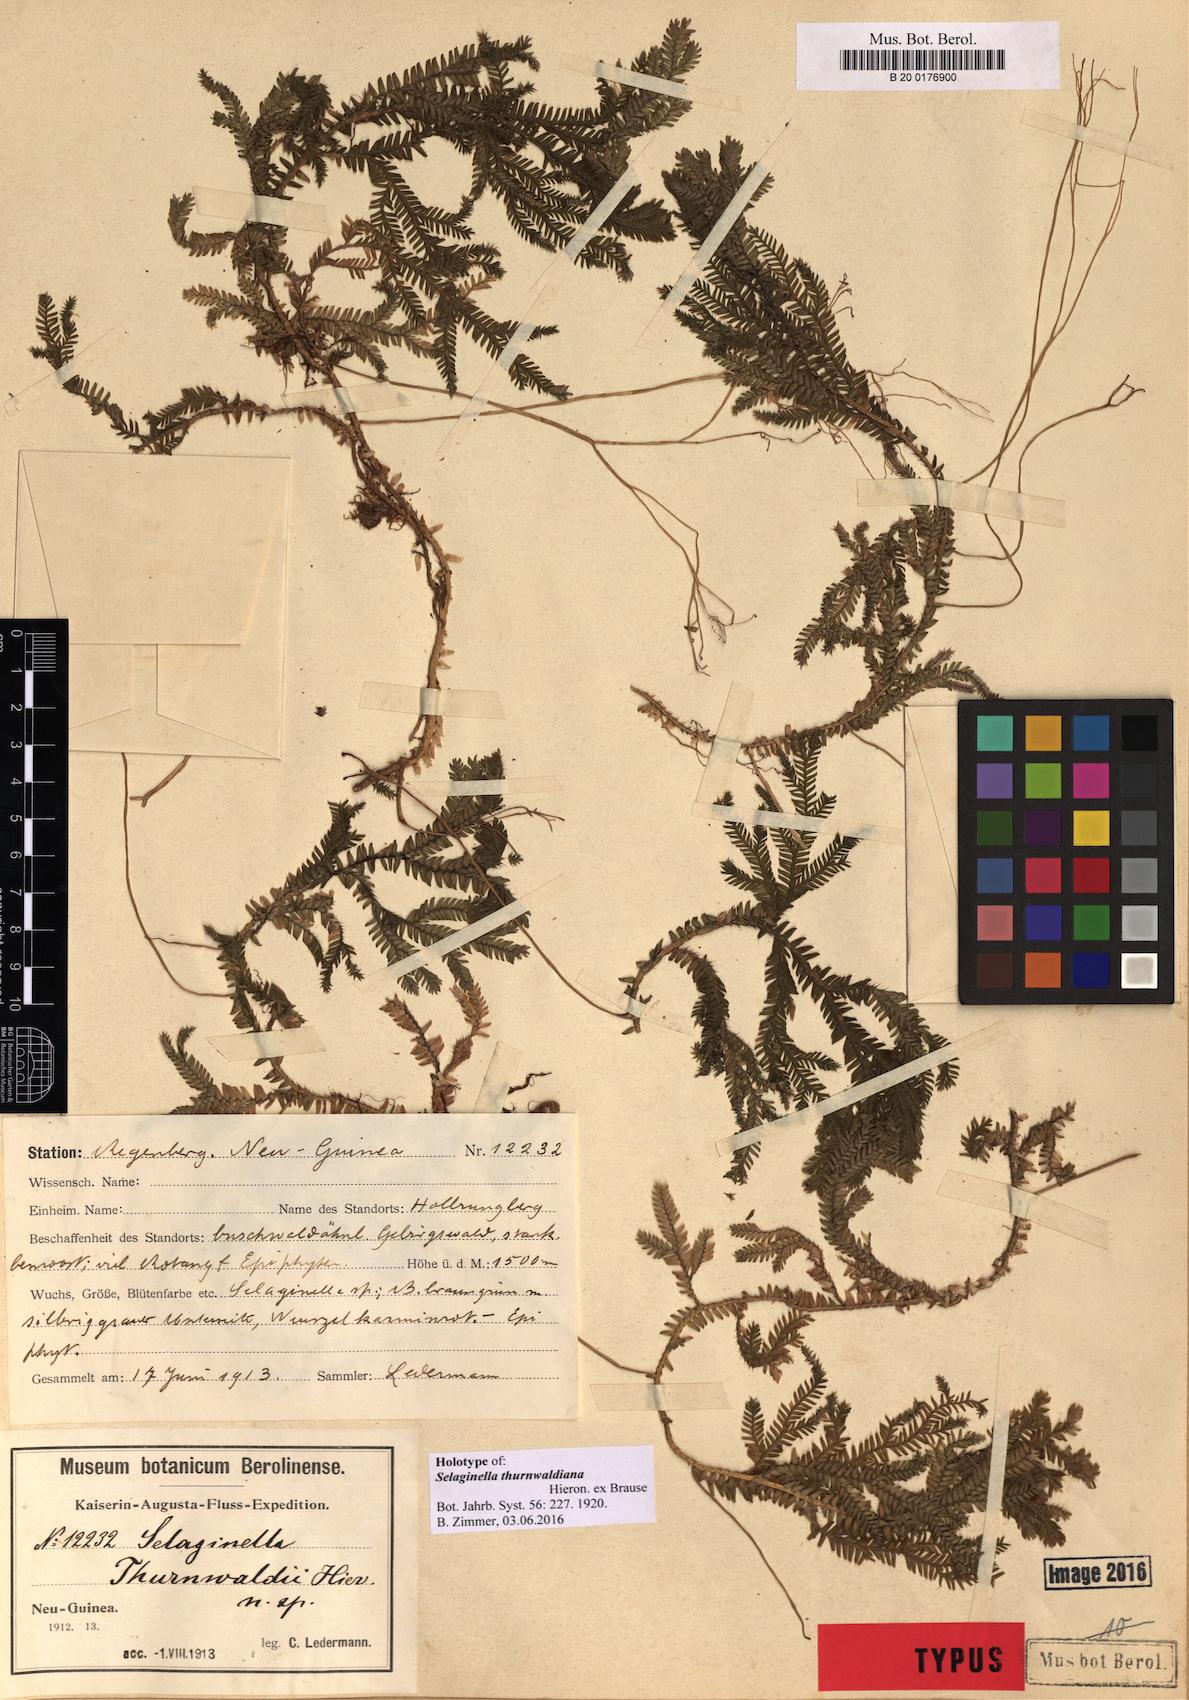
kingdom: Plantae
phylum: Tracheophyta
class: Lycopodiopsida
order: Selaginellales
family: Selaginellaceae
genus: Selaginella
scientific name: Selaginella thurnwaldiana
